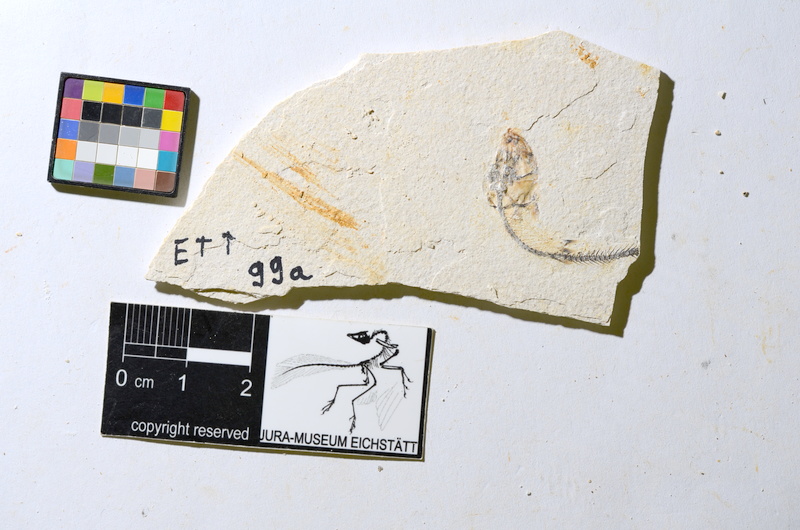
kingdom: Animalia
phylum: Chordata
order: Salmoniformes
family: Orthogonikleithridae
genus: Orthogonikleithrus
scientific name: Orthogonikleithrus hoelli
